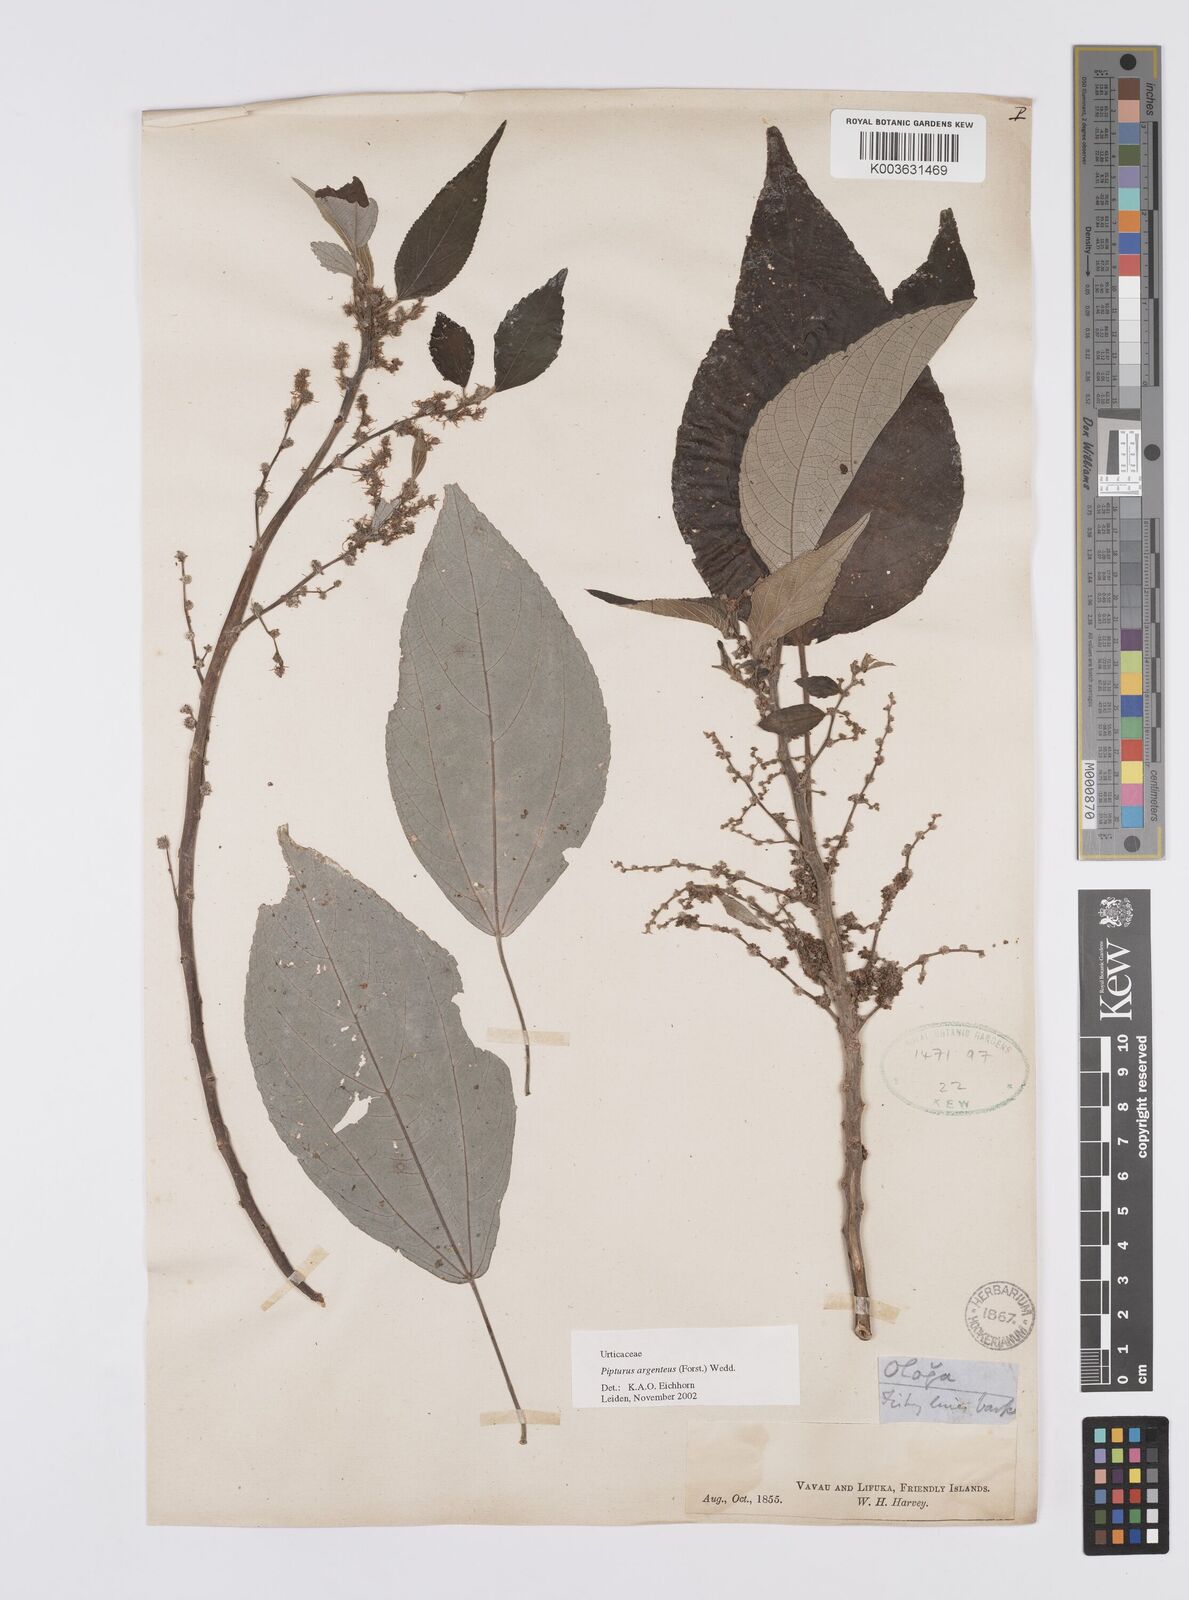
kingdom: Plantae
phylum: Tracheophyta
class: Magnoliopsida
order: Rosales
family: Urticaceae
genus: Pipturus
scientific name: Pipturus argenteus
